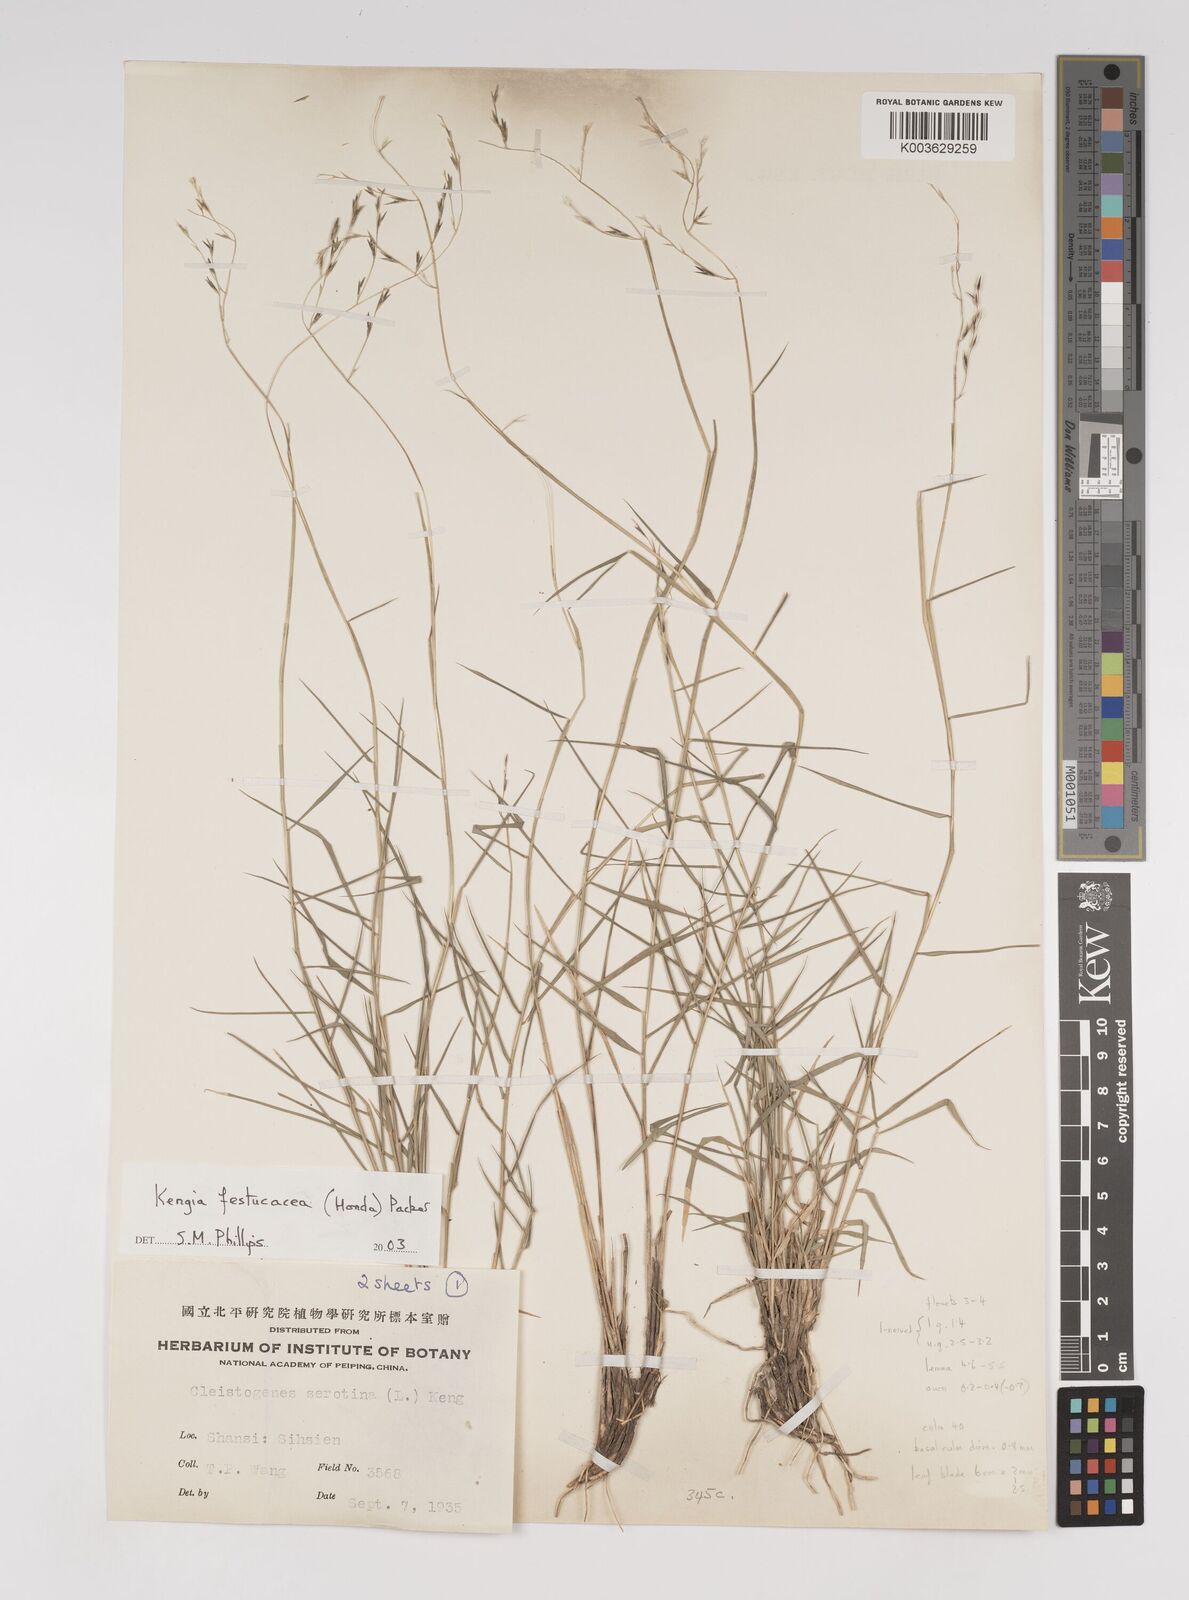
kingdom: Plantae
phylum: Tracheophyta
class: Liliopsida
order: Poales
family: Poaceae
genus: Cleistogenes
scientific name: Cleistogenes festucacea
